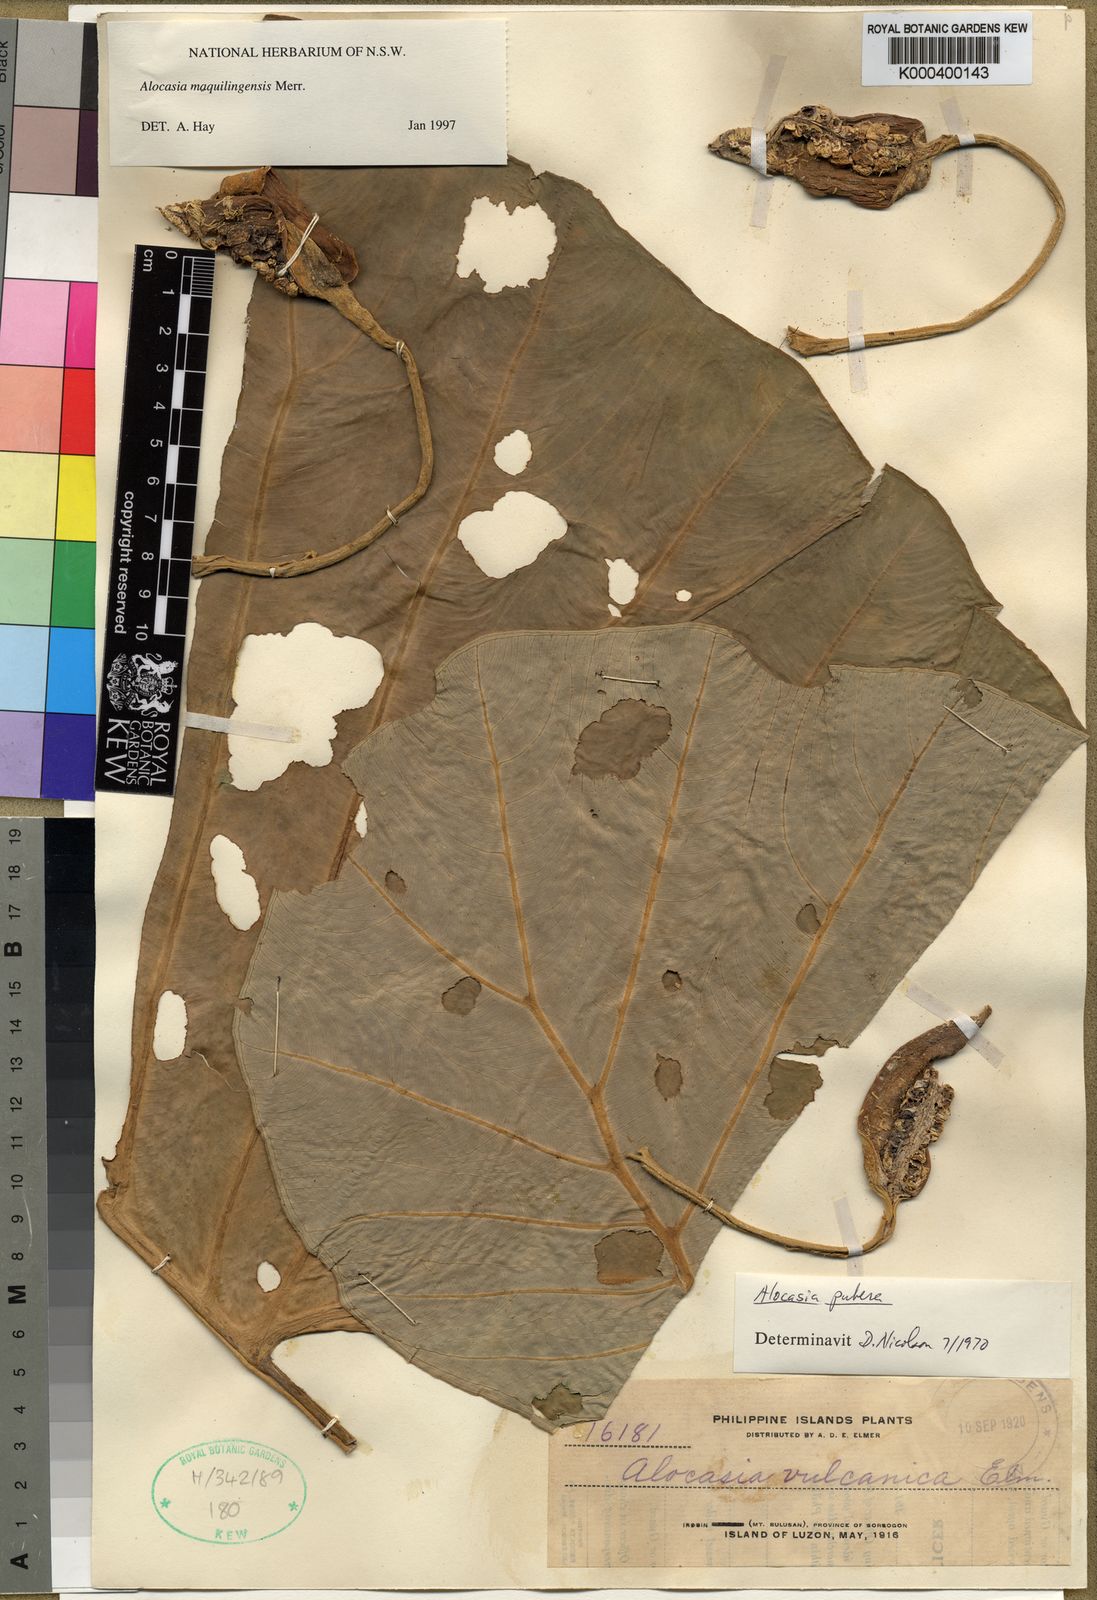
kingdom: Plantae
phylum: Tracheophyta
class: Liliopsida
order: Alismatales
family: Araceae
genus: Alocasia
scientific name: Alocasia maquilingensis
